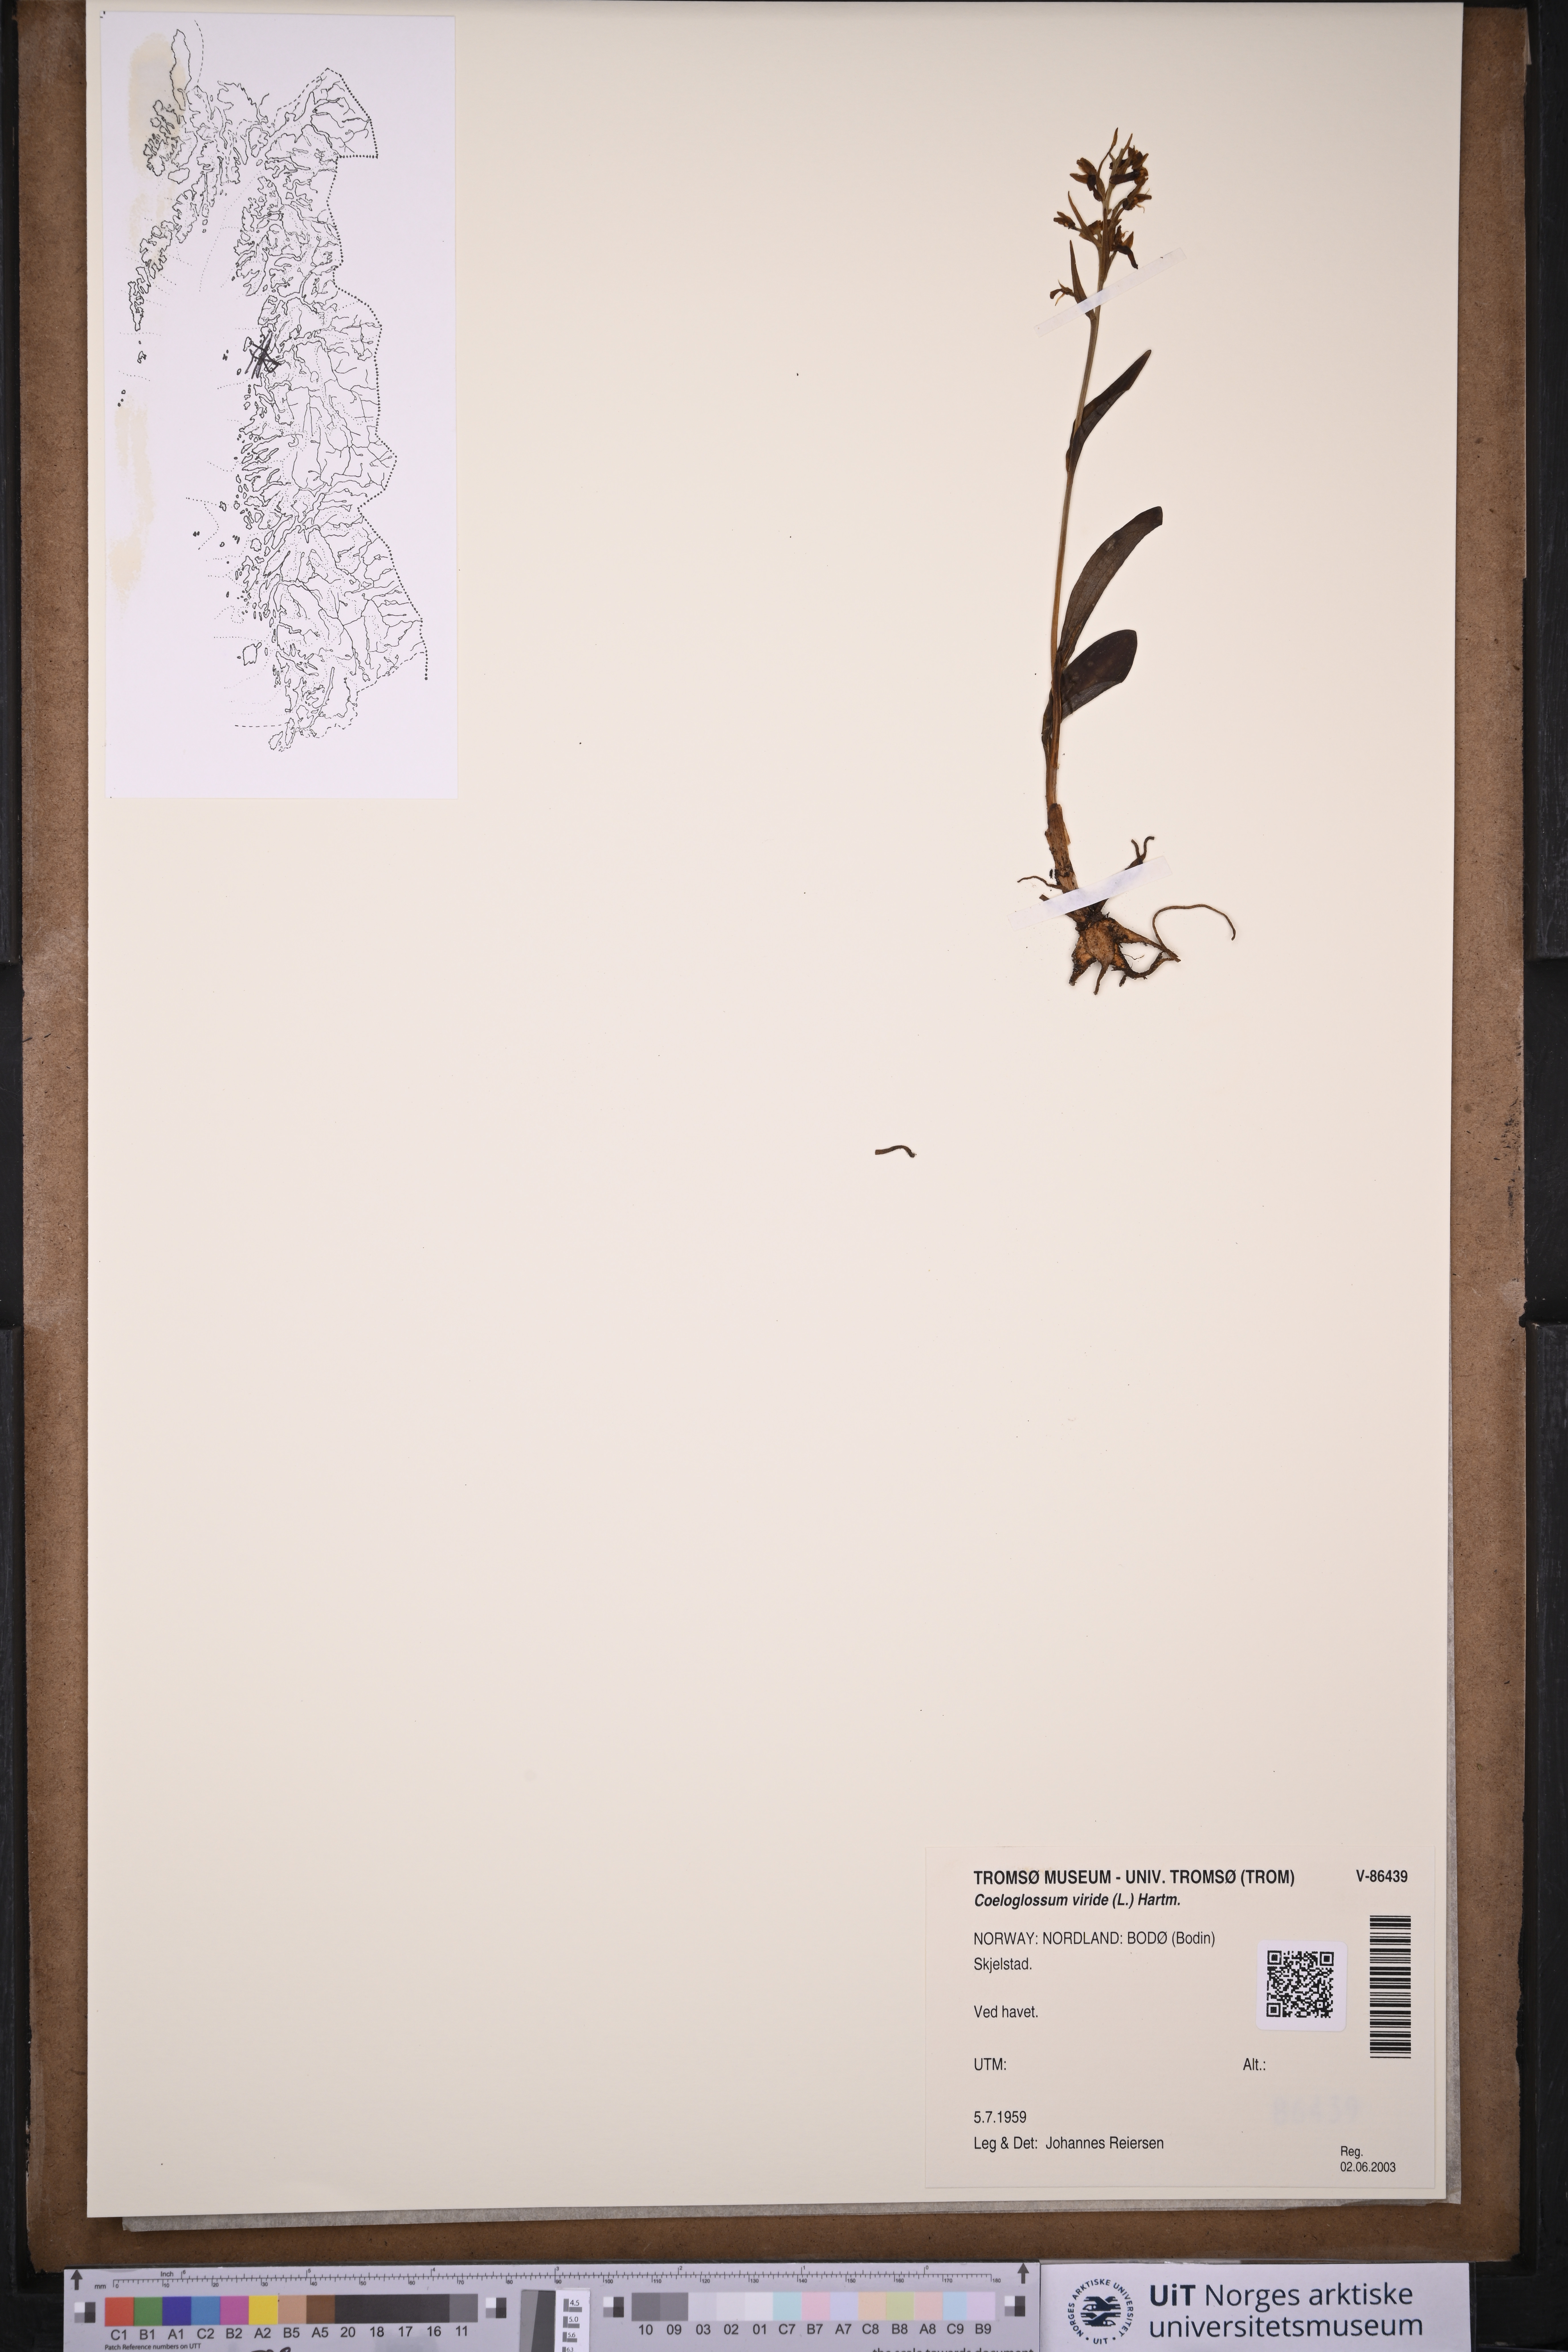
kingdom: Plantae
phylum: Tracheophyta
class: Liliopsida
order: Asparagales
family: Orchidaceae
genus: Dactylorhiza
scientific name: Dactylorhiza viridis
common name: Longbract frog orchid
